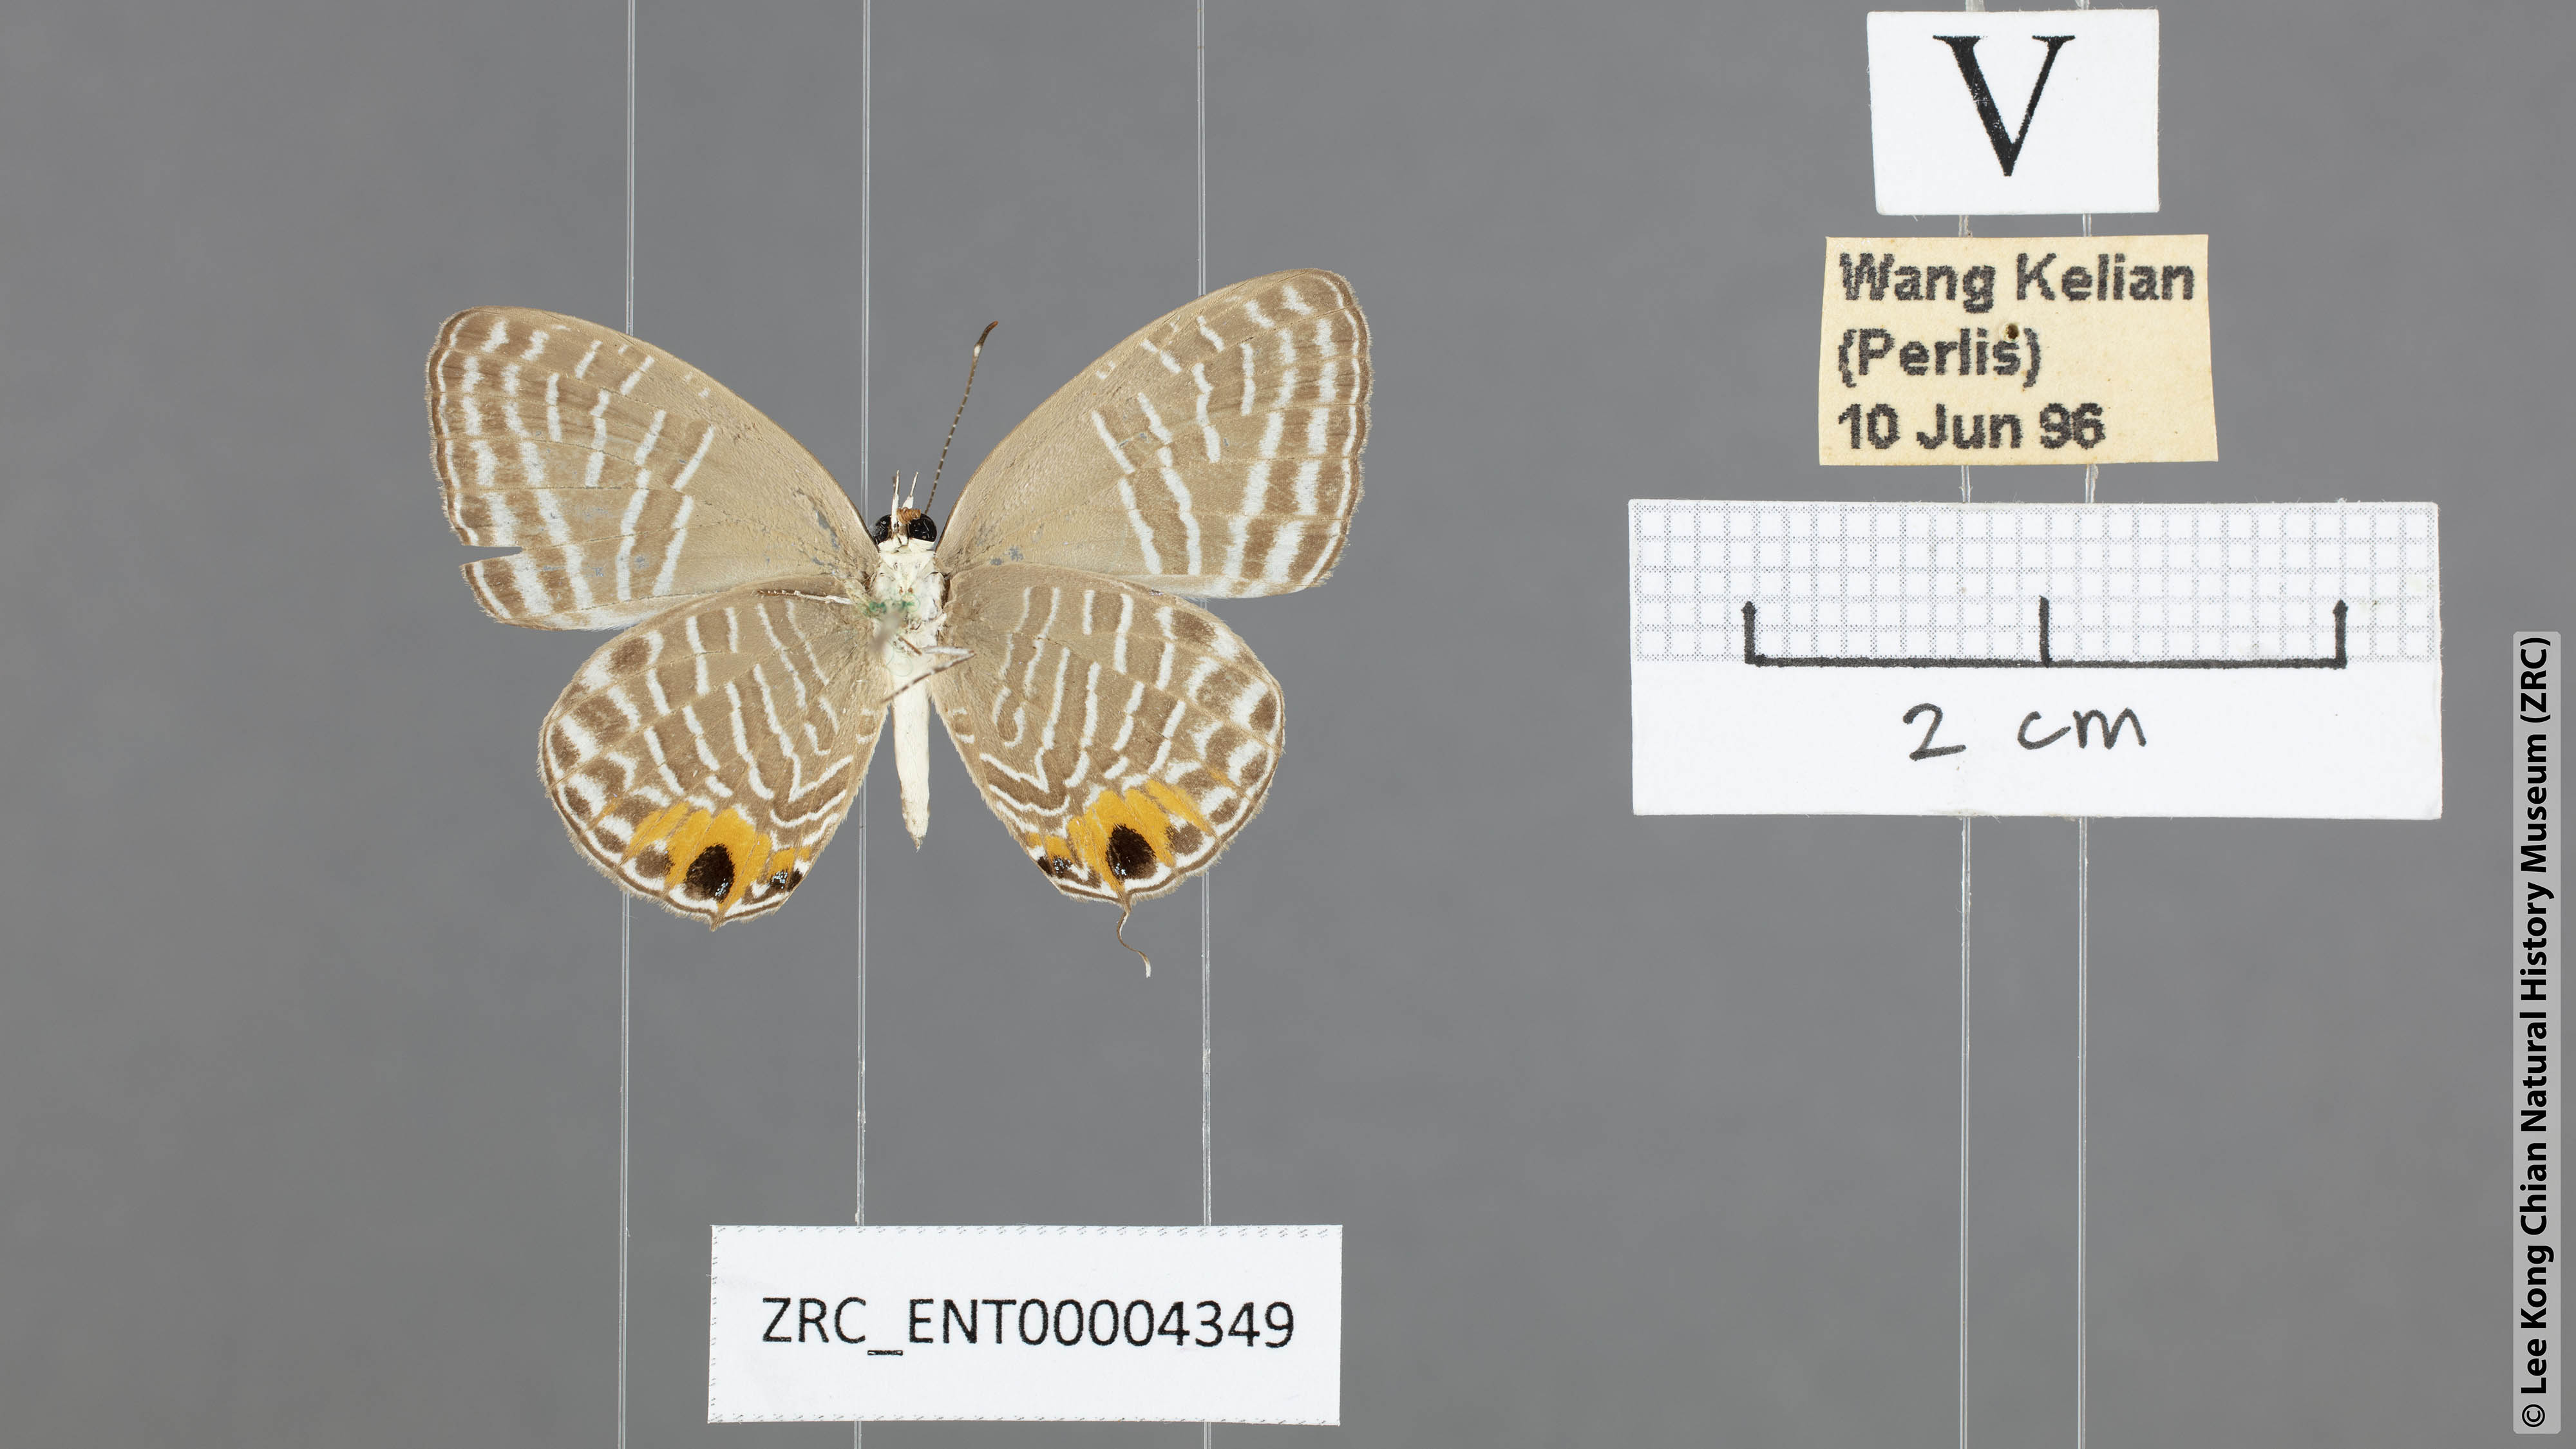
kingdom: Animalia
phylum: Arthropoda
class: Insecta
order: Lepidoptera
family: Lycaenidae
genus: Jamides
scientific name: Jamides
